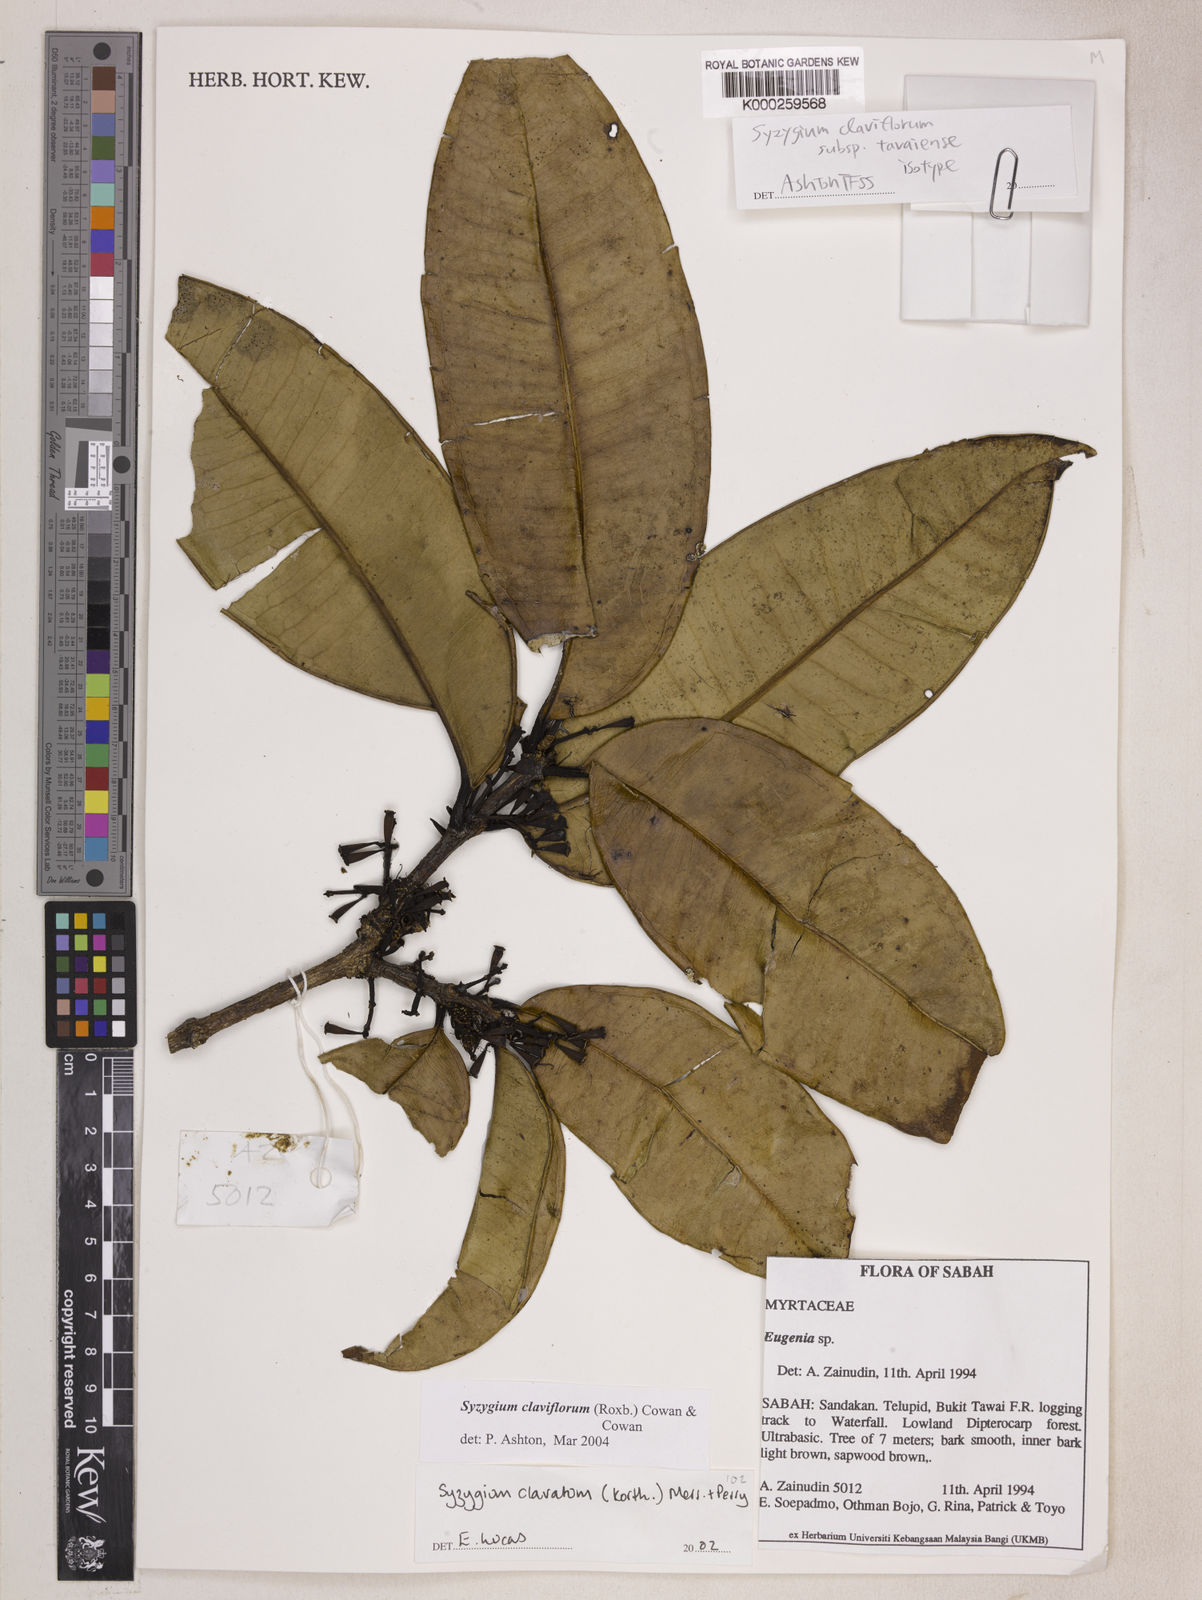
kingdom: Plantae
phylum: Tracheophyta
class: Magnoliopsida
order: Myrtales
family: Myrtaceae
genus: Syzygium
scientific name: Syzygium claviflorum
